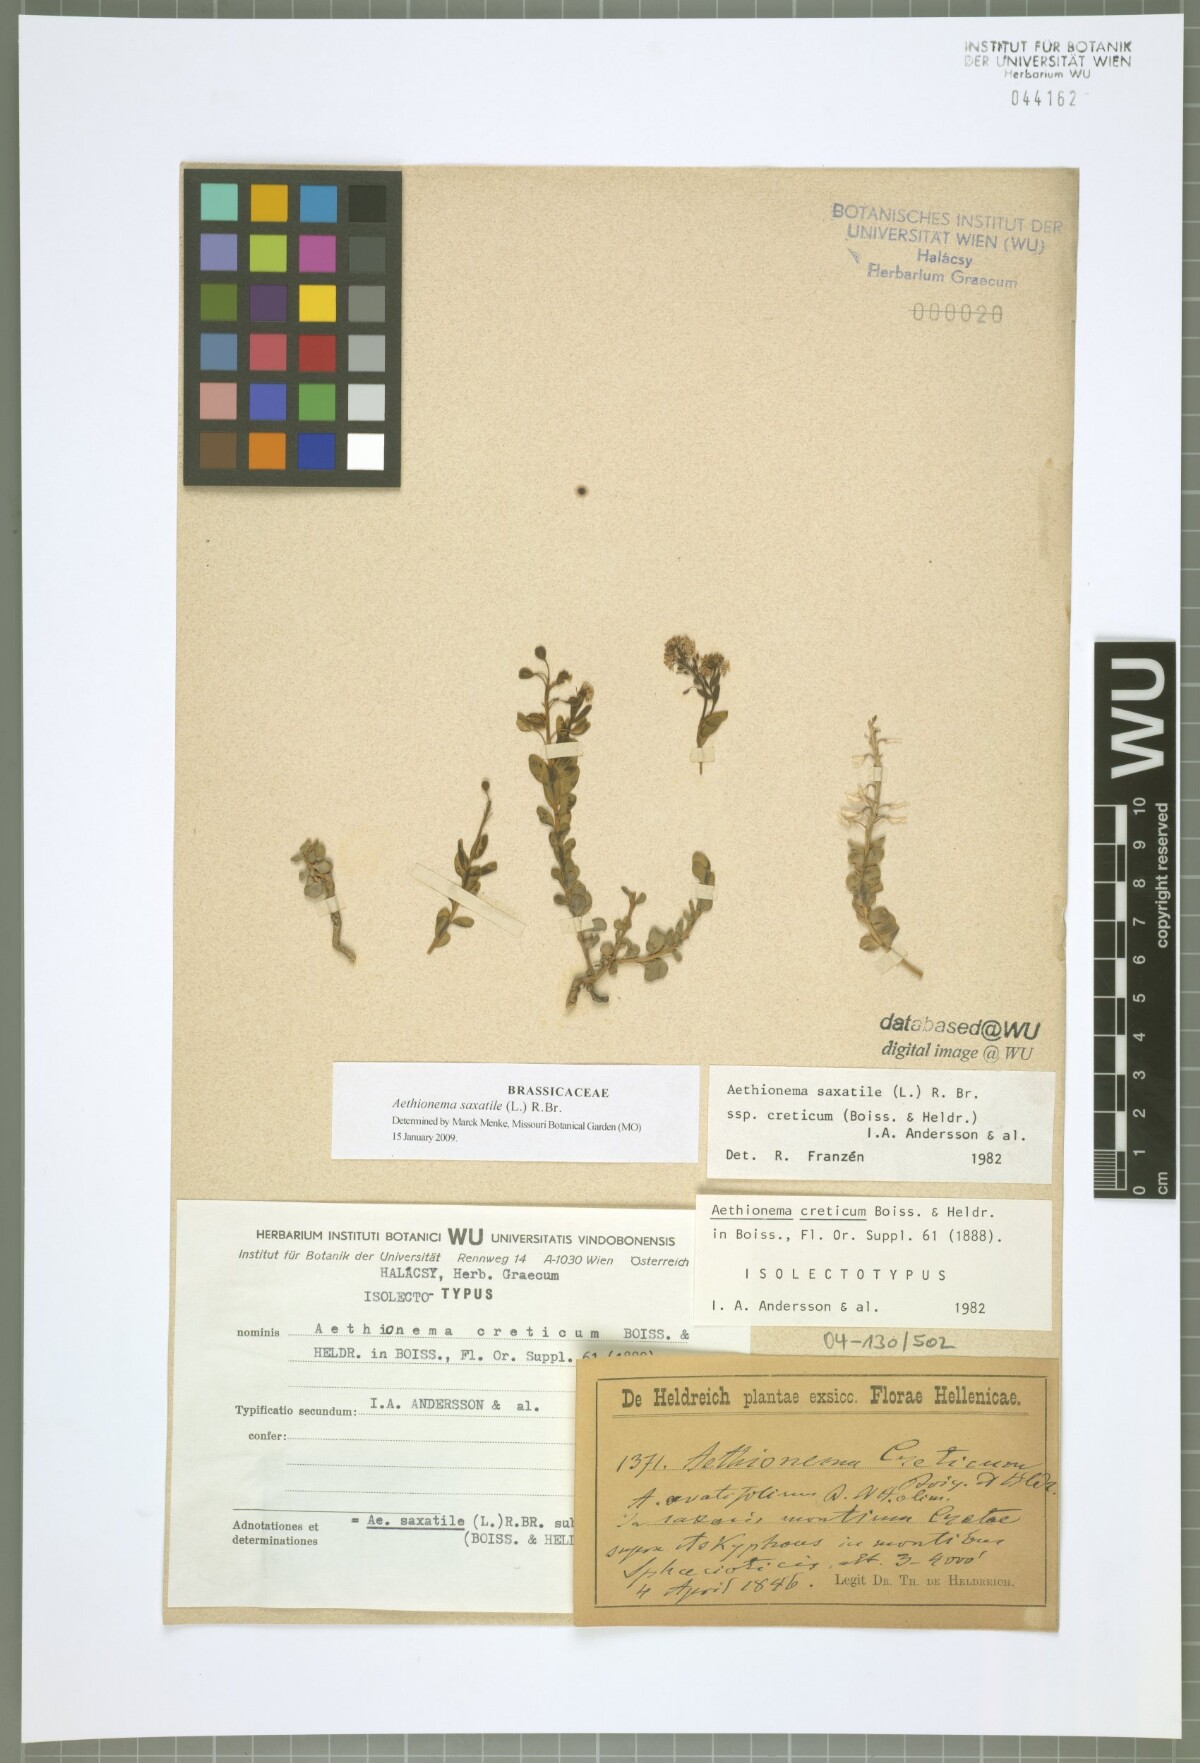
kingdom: Plantae
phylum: Tracheophyta
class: Magnoliopsida
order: Brassicales
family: Brassicaceae
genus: Aethionema
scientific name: Aethionema saxatile
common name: Burnt candytuft
